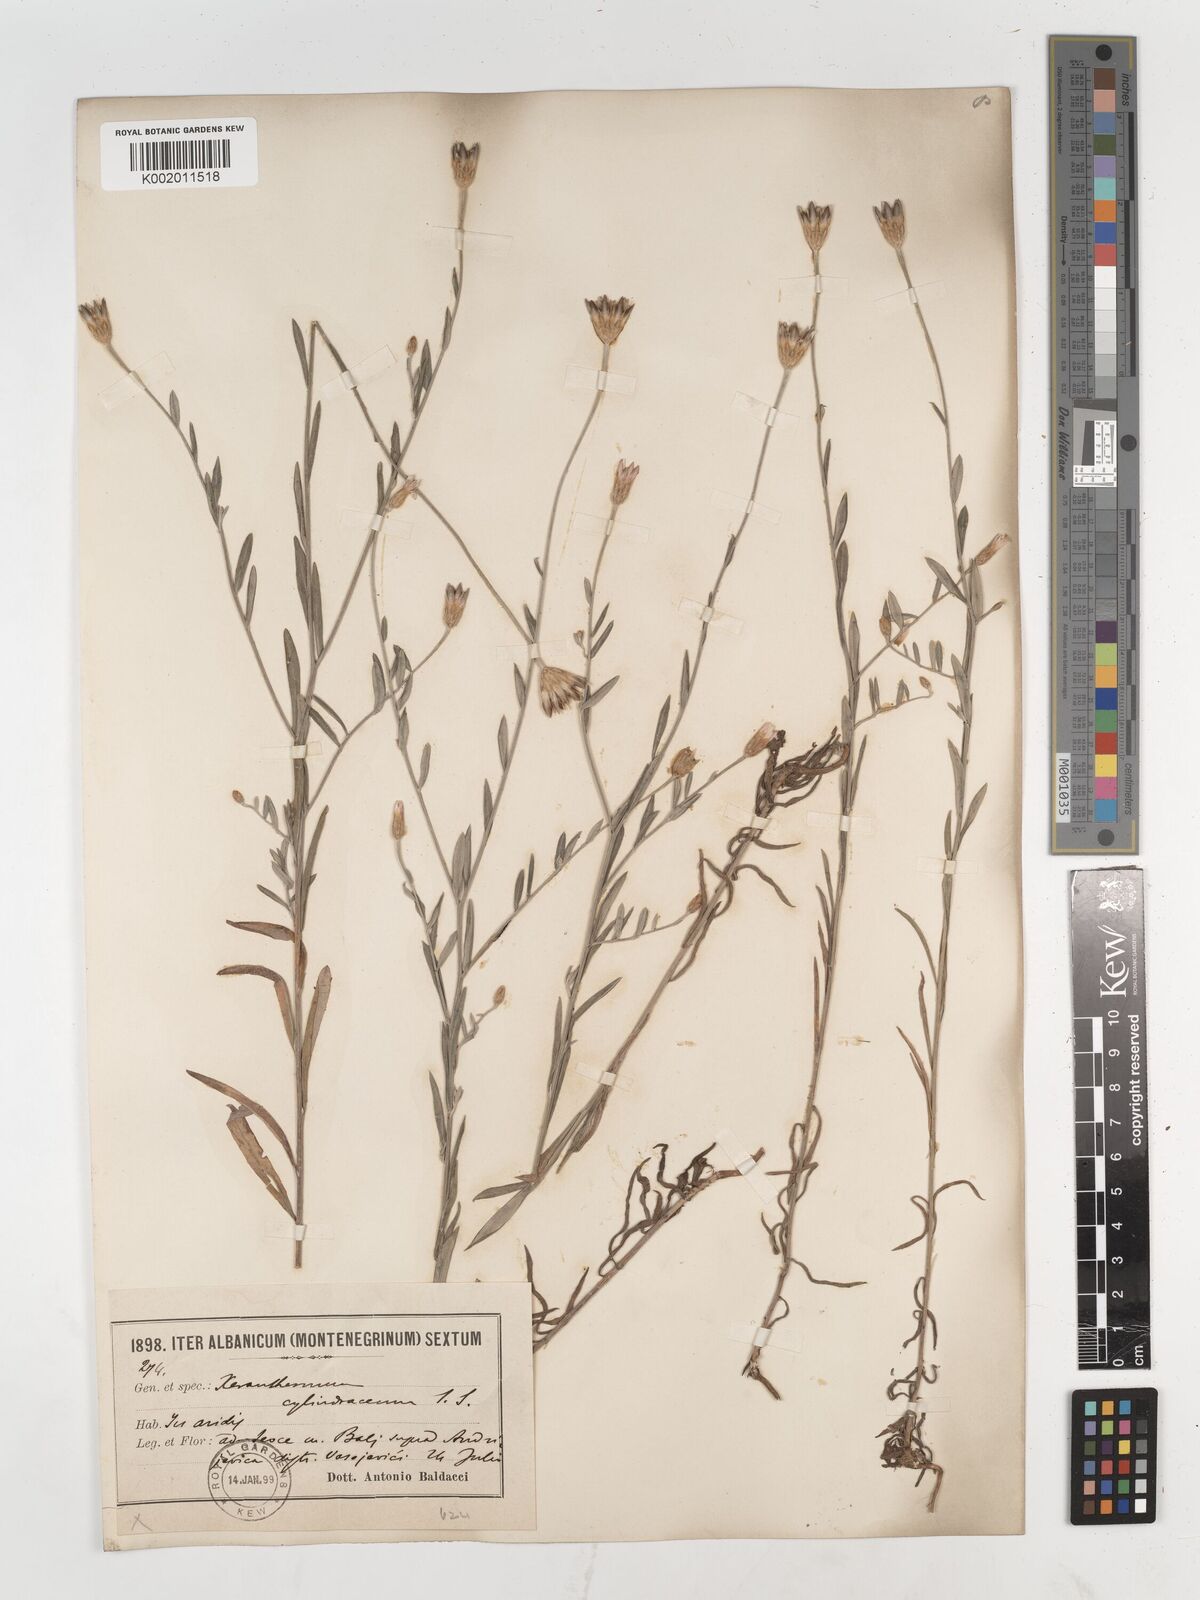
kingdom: Plantae
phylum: Tracheophyta
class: Magnoliopsida
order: Asterales
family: Asteraceae
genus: Xeranthemum
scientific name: Xeranthemum
